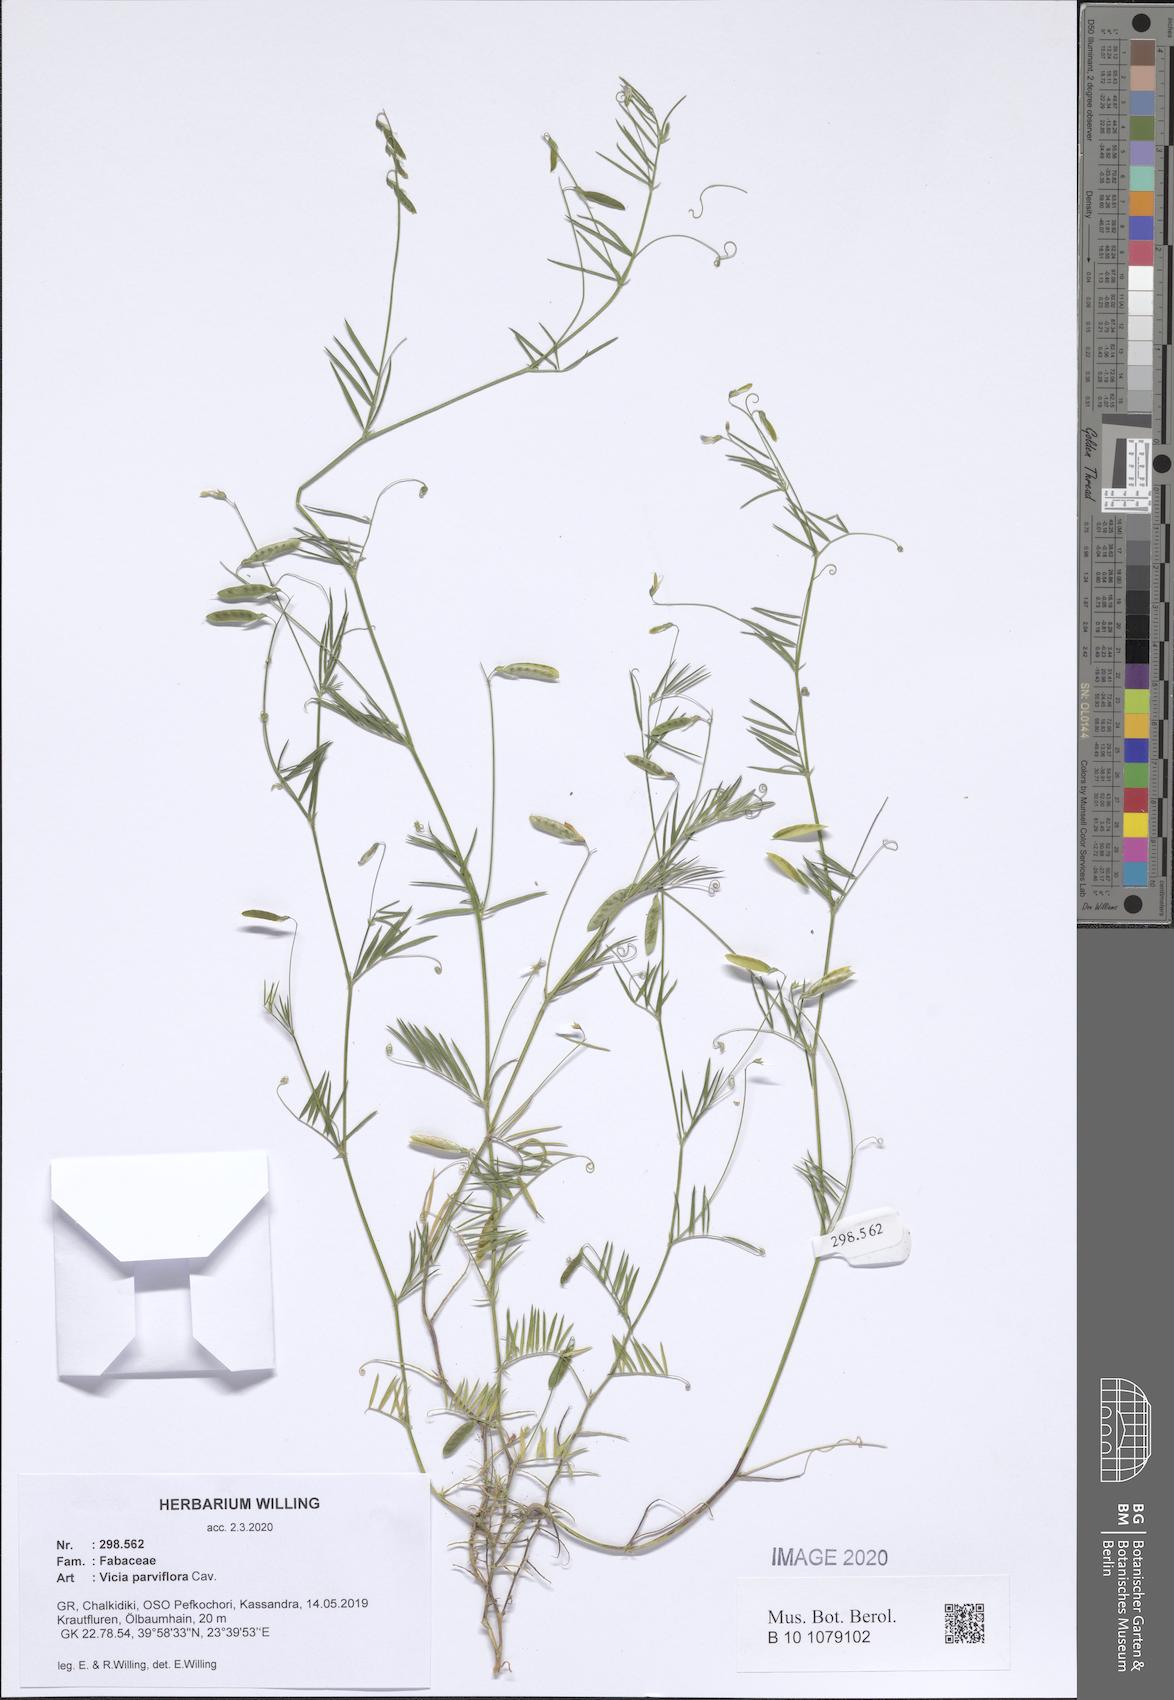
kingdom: Plantae
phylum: Tracheophyta
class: Magnoliopsida
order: Fabales
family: Fabaceae
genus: Vicia
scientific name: Vicia parviflora
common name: Slender tare
